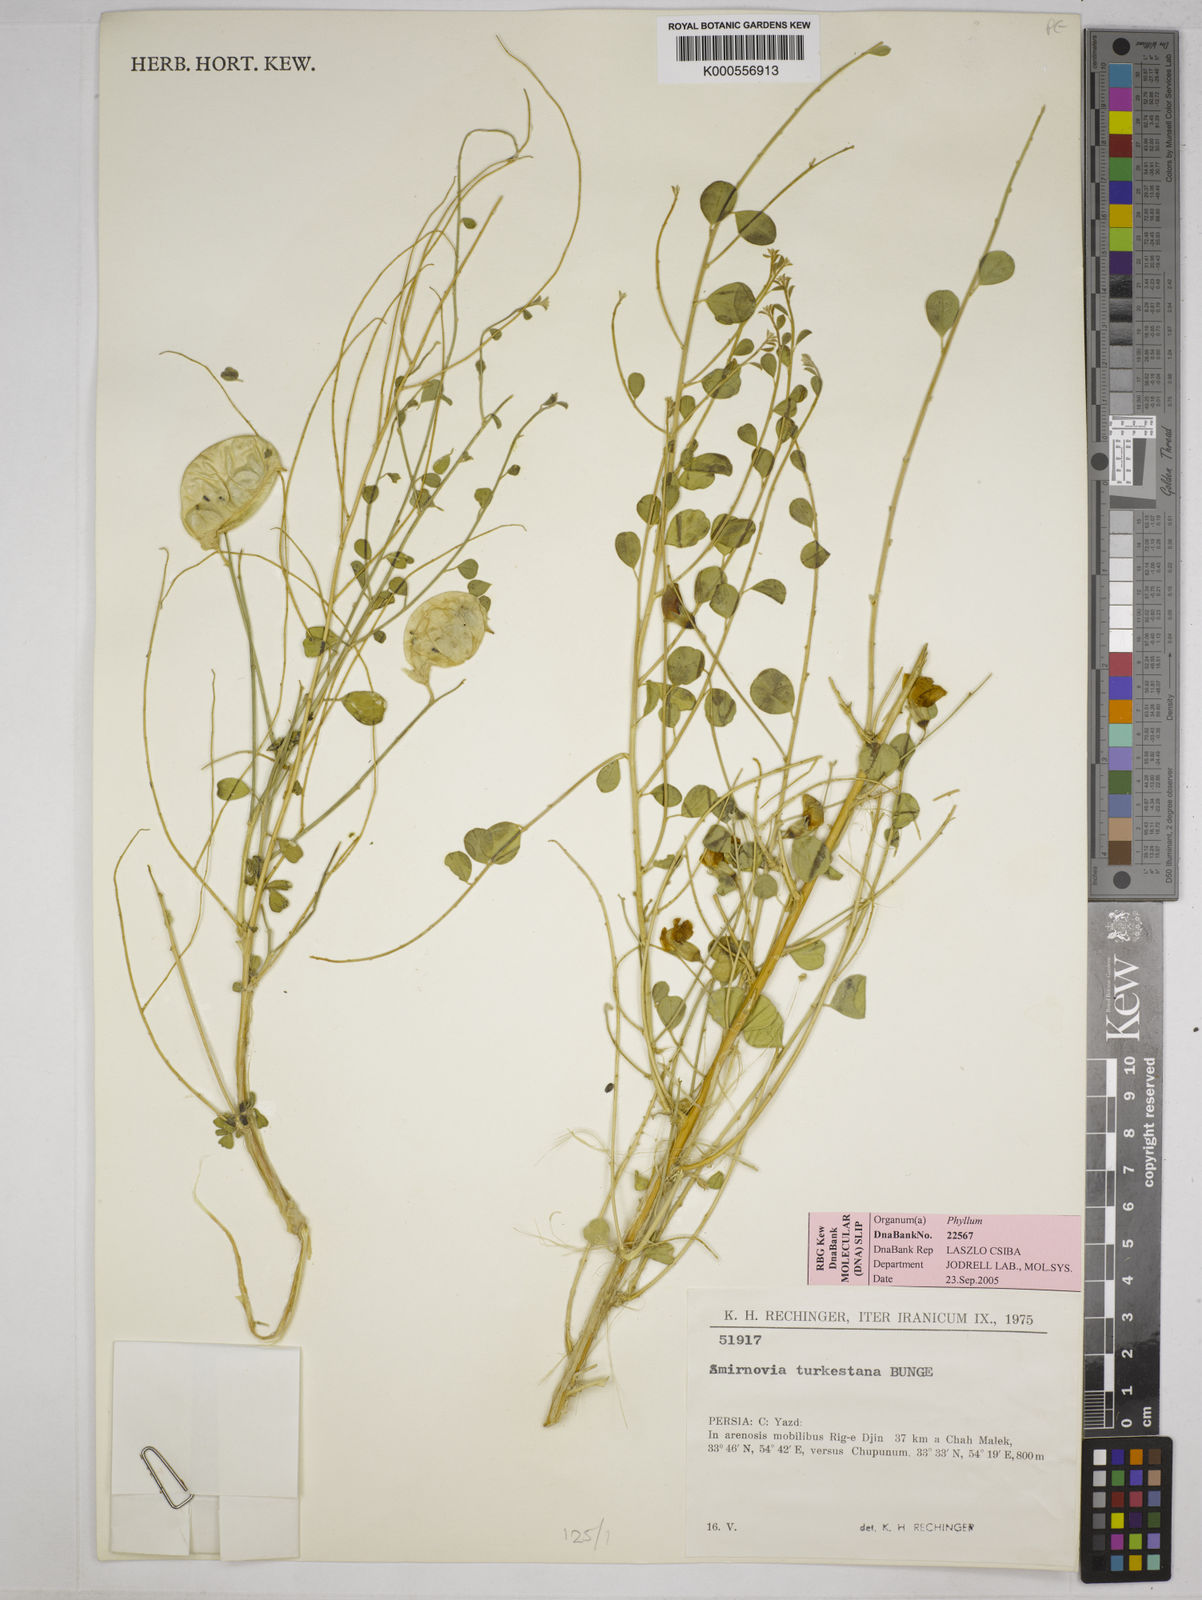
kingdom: Plantae
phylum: Tracheophyta
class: Magnoliopsida
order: Fabales
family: Fabaceae
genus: Smirnowia
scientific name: Smirnowia turkestana
